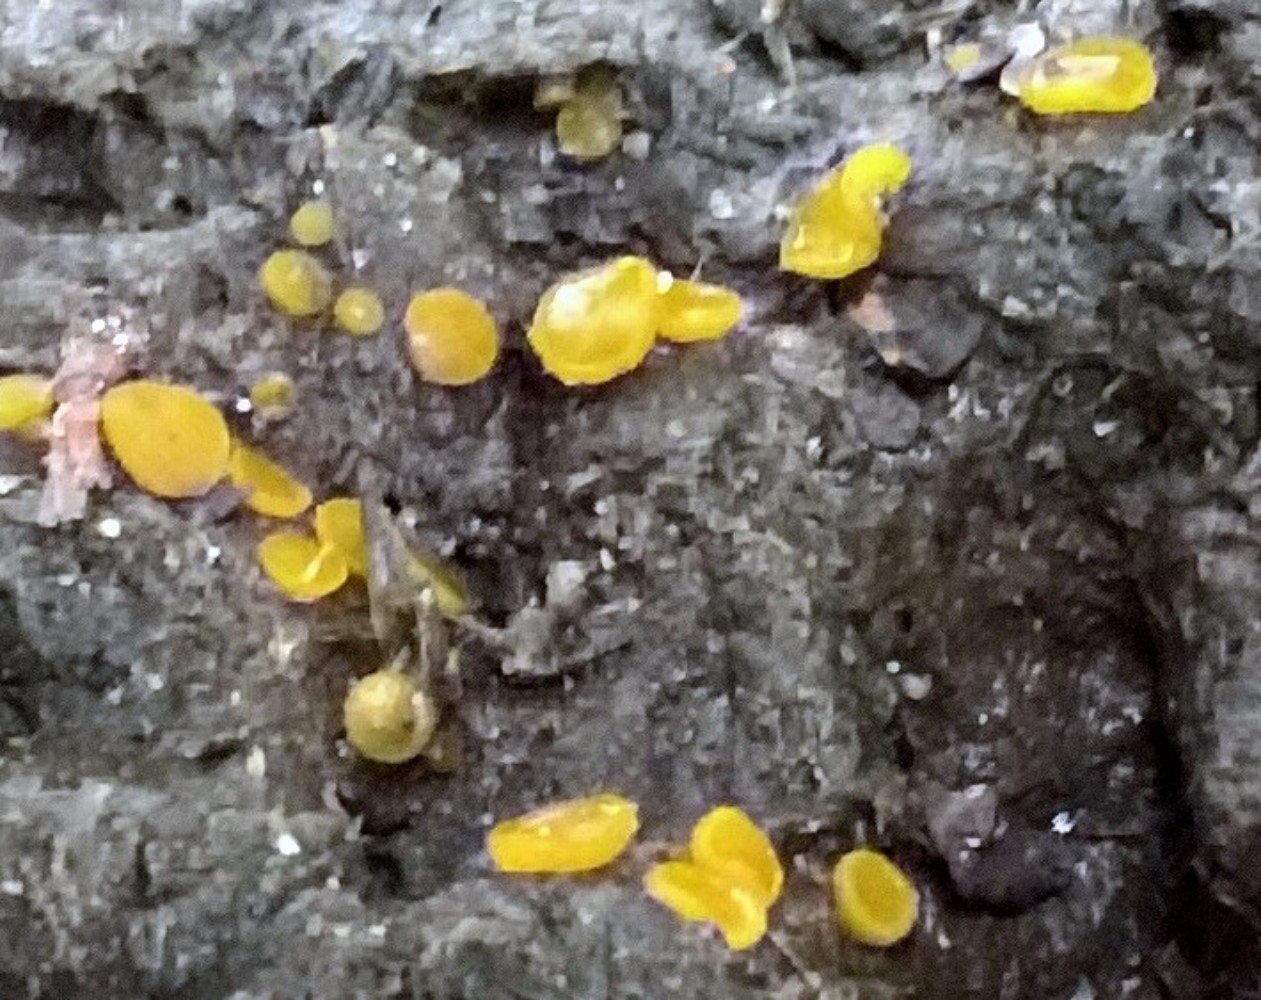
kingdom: Fungi
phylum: Ascomycota
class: Pezizomycetes
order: Pezizales
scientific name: Pezizales
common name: bægersvampordenen
